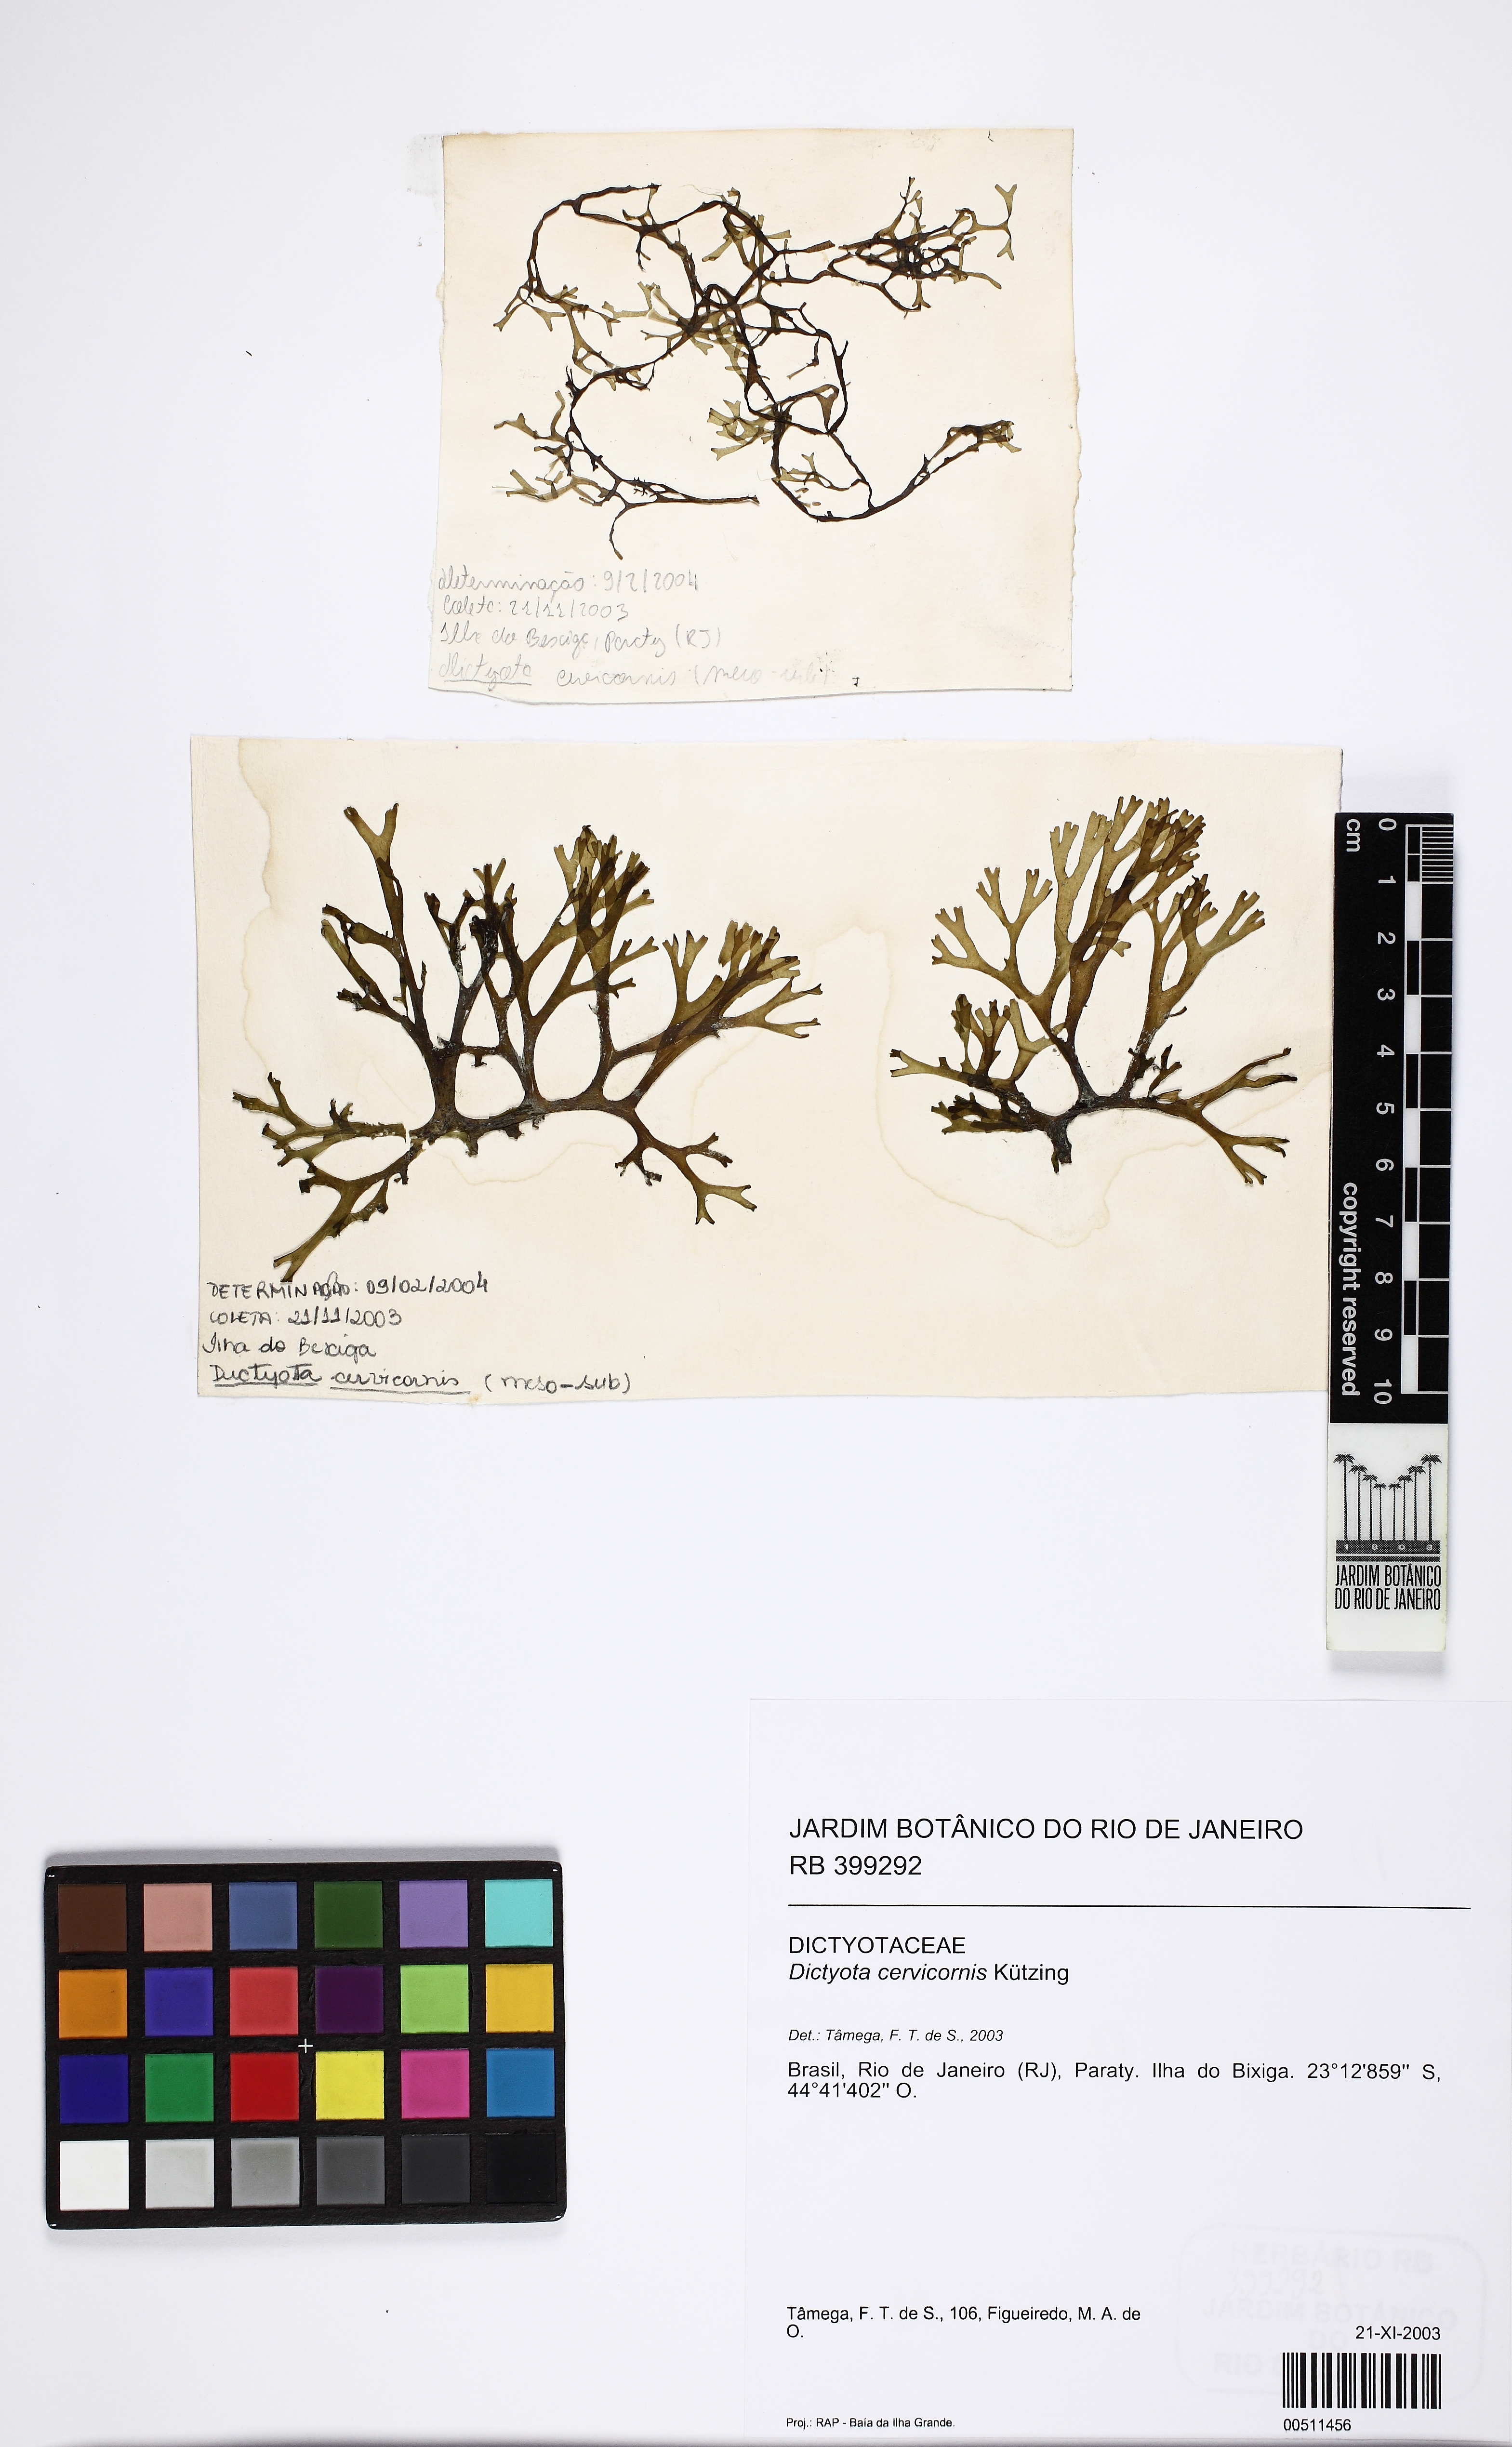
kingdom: Chromista
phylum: Ochrophyta
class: Phaeophyceae
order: Dictyotales
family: Dictyotaceae
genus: Canistrocarpus
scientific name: Canistrocarpus cervicornis
